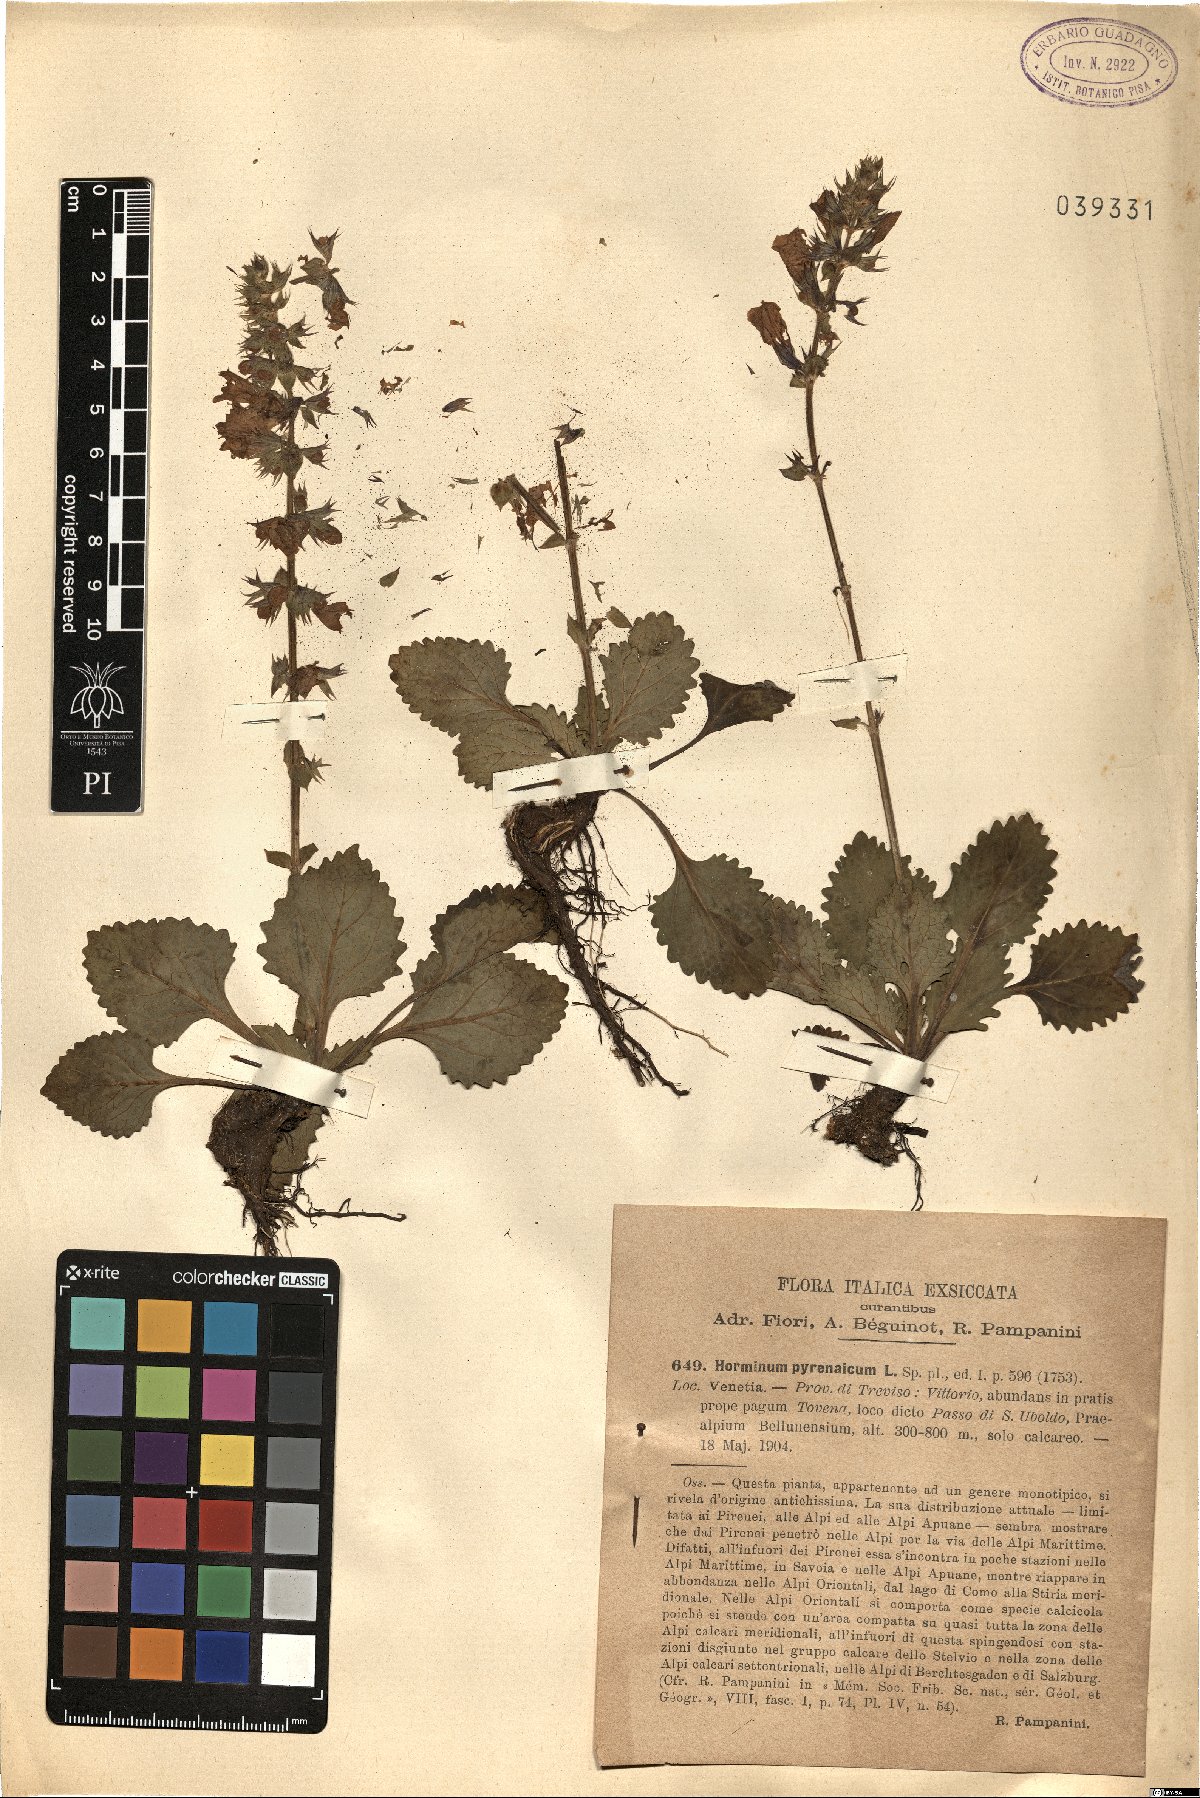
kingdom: Plantae
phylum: Tracheophyta
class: Magnoliopsida
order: Lamiales
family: Lamiaceae
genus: Horminum
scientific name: Horminum pyrenaicum
